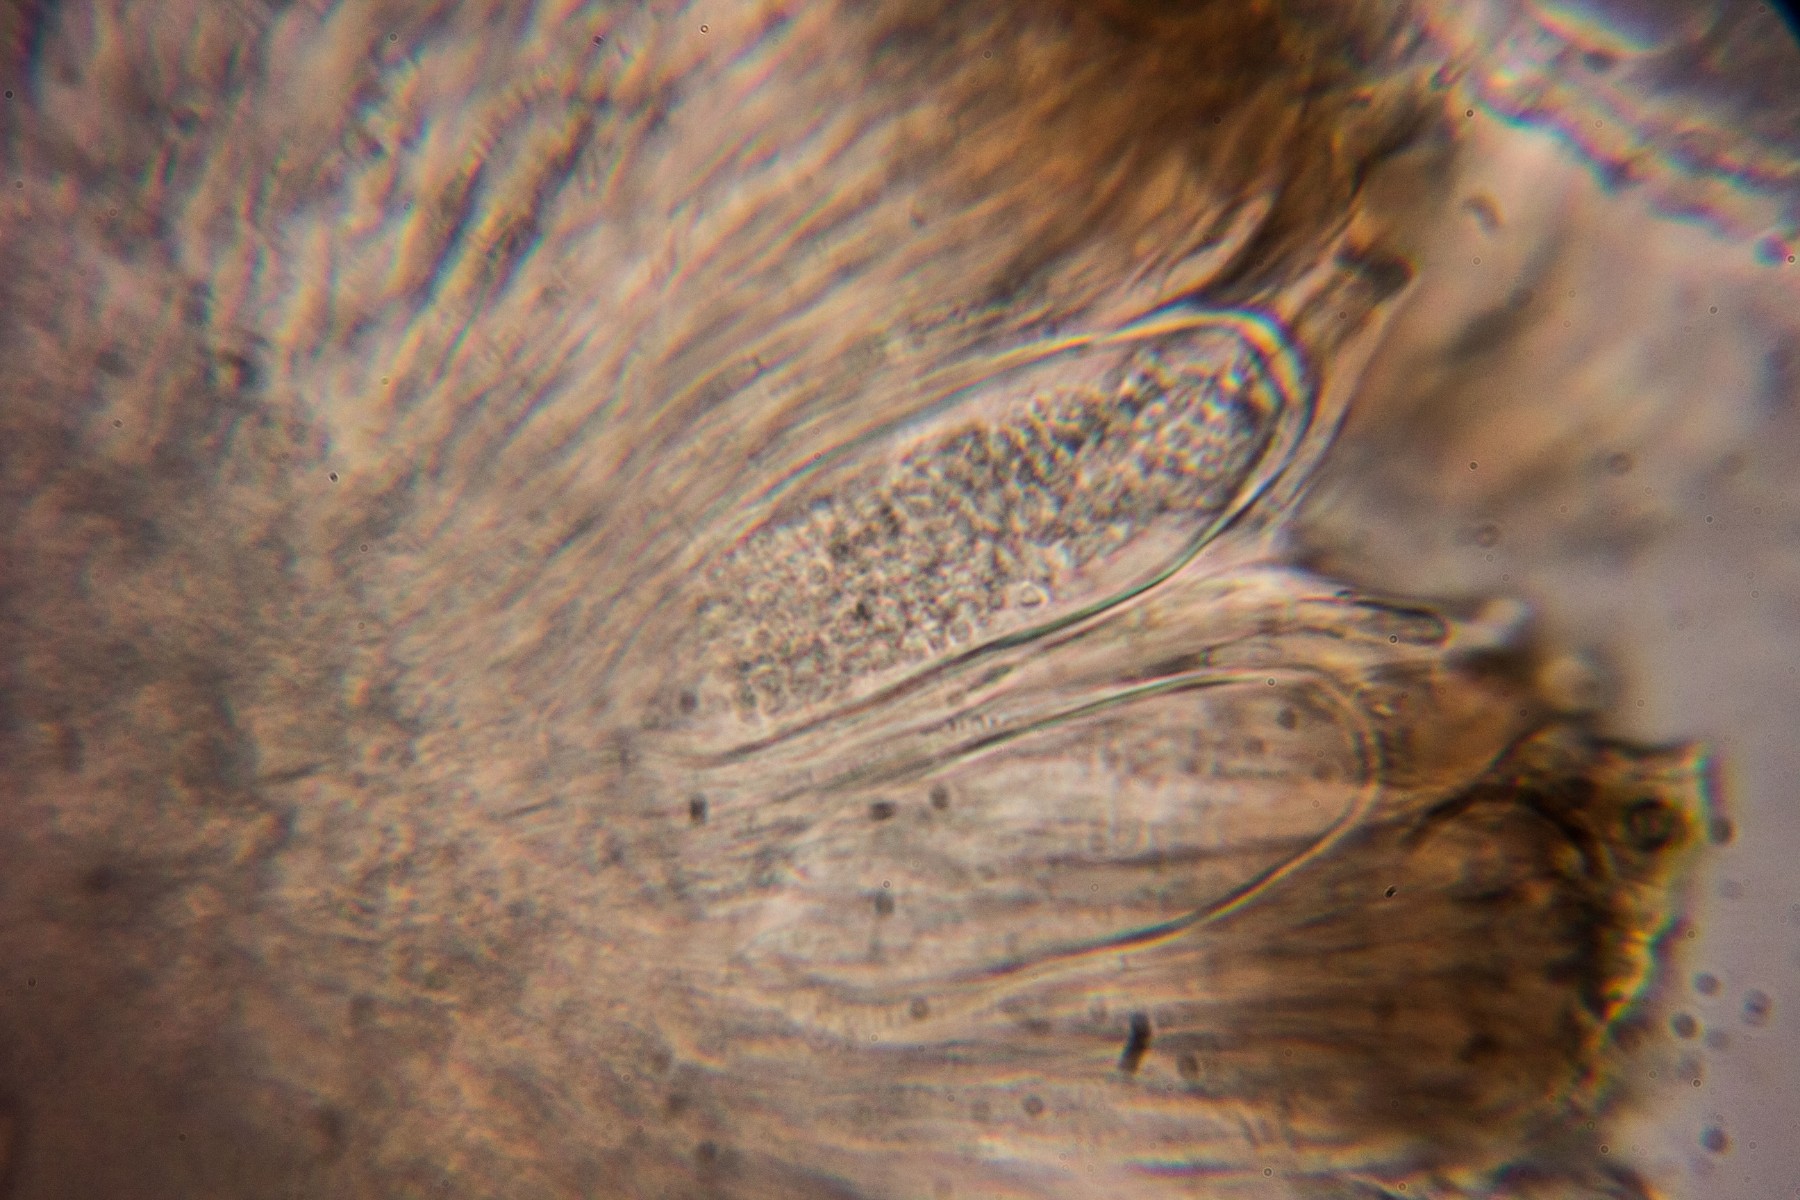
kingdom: Fungi
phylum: Ascomycota
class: Lecanoromycetes
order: Acarosporales
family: Acarosporaceae
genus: Sarcogyne
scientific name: Sarcogyne regularis
